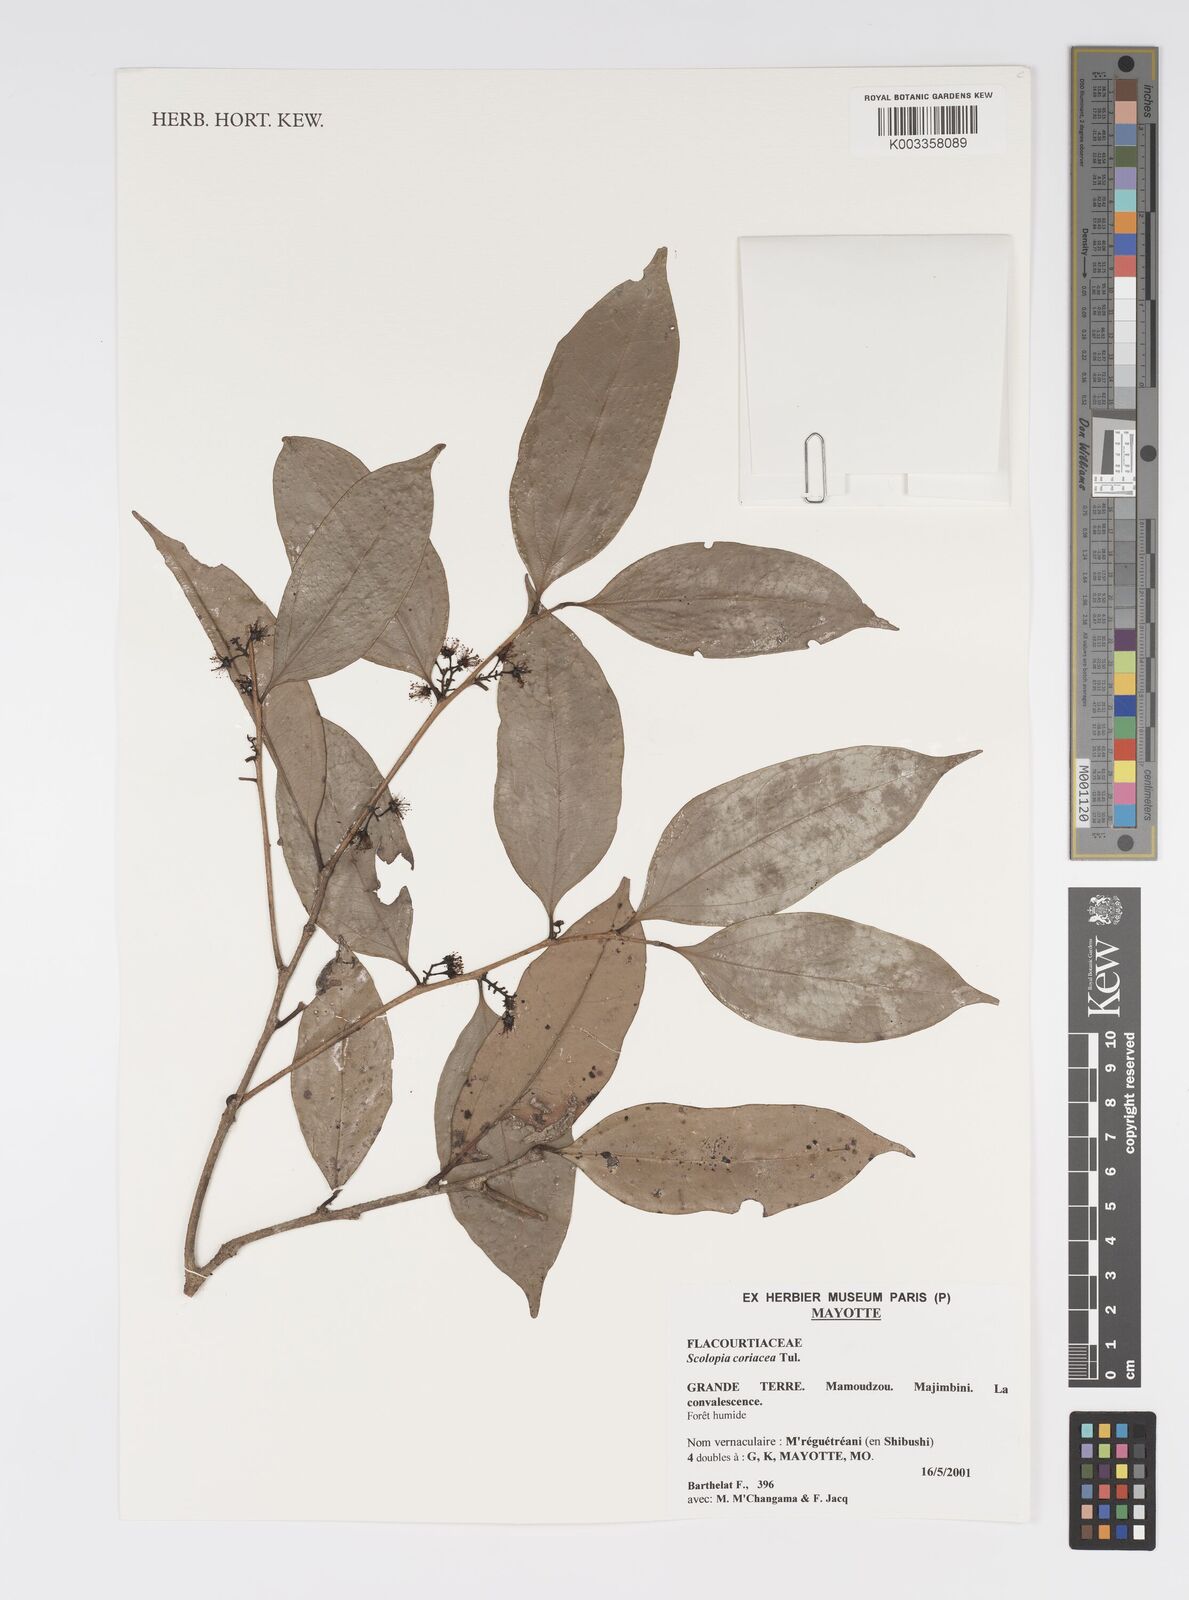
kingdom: Plantae
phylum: Tracheophyta
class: Magnoliopsida
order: Malpighiales
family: Salicaceae
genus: Scolopia
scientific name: Scolopia coriacea
